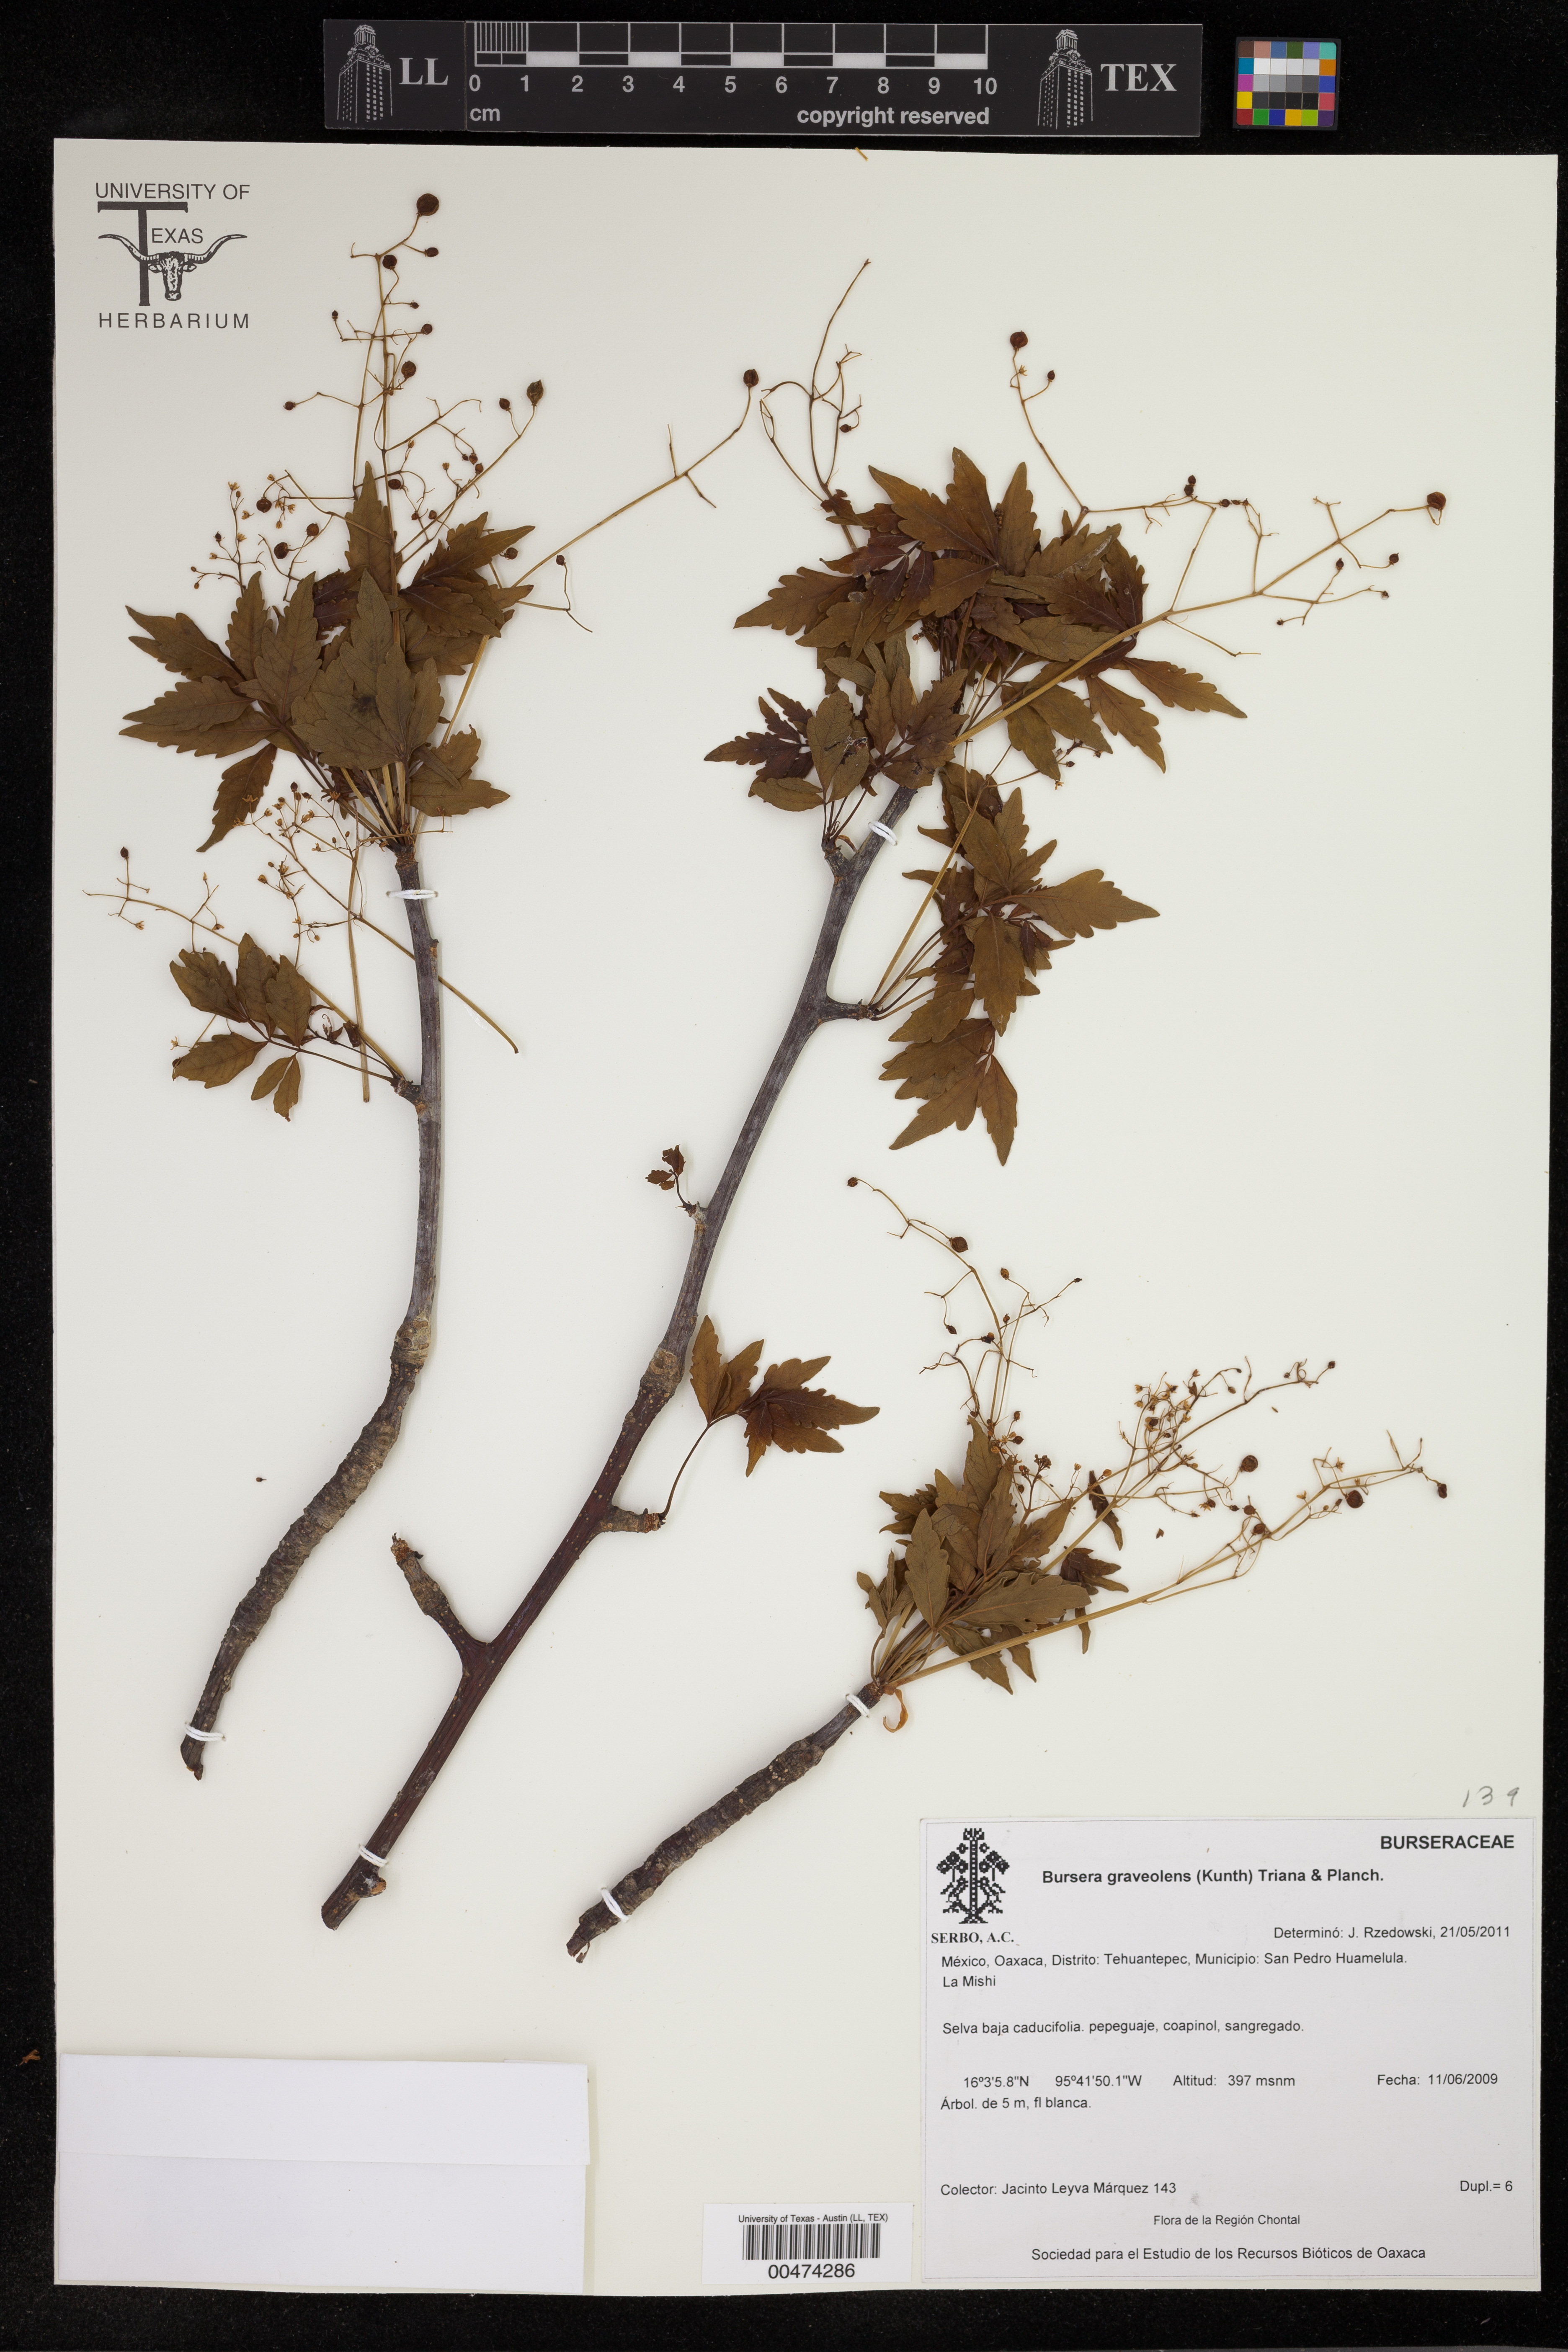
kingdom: Plantae
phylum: Tracheophyta
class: Magnoliopsida
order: Sapindales
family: Burseraceae
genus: Bursera
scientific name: Bursera graveolens
